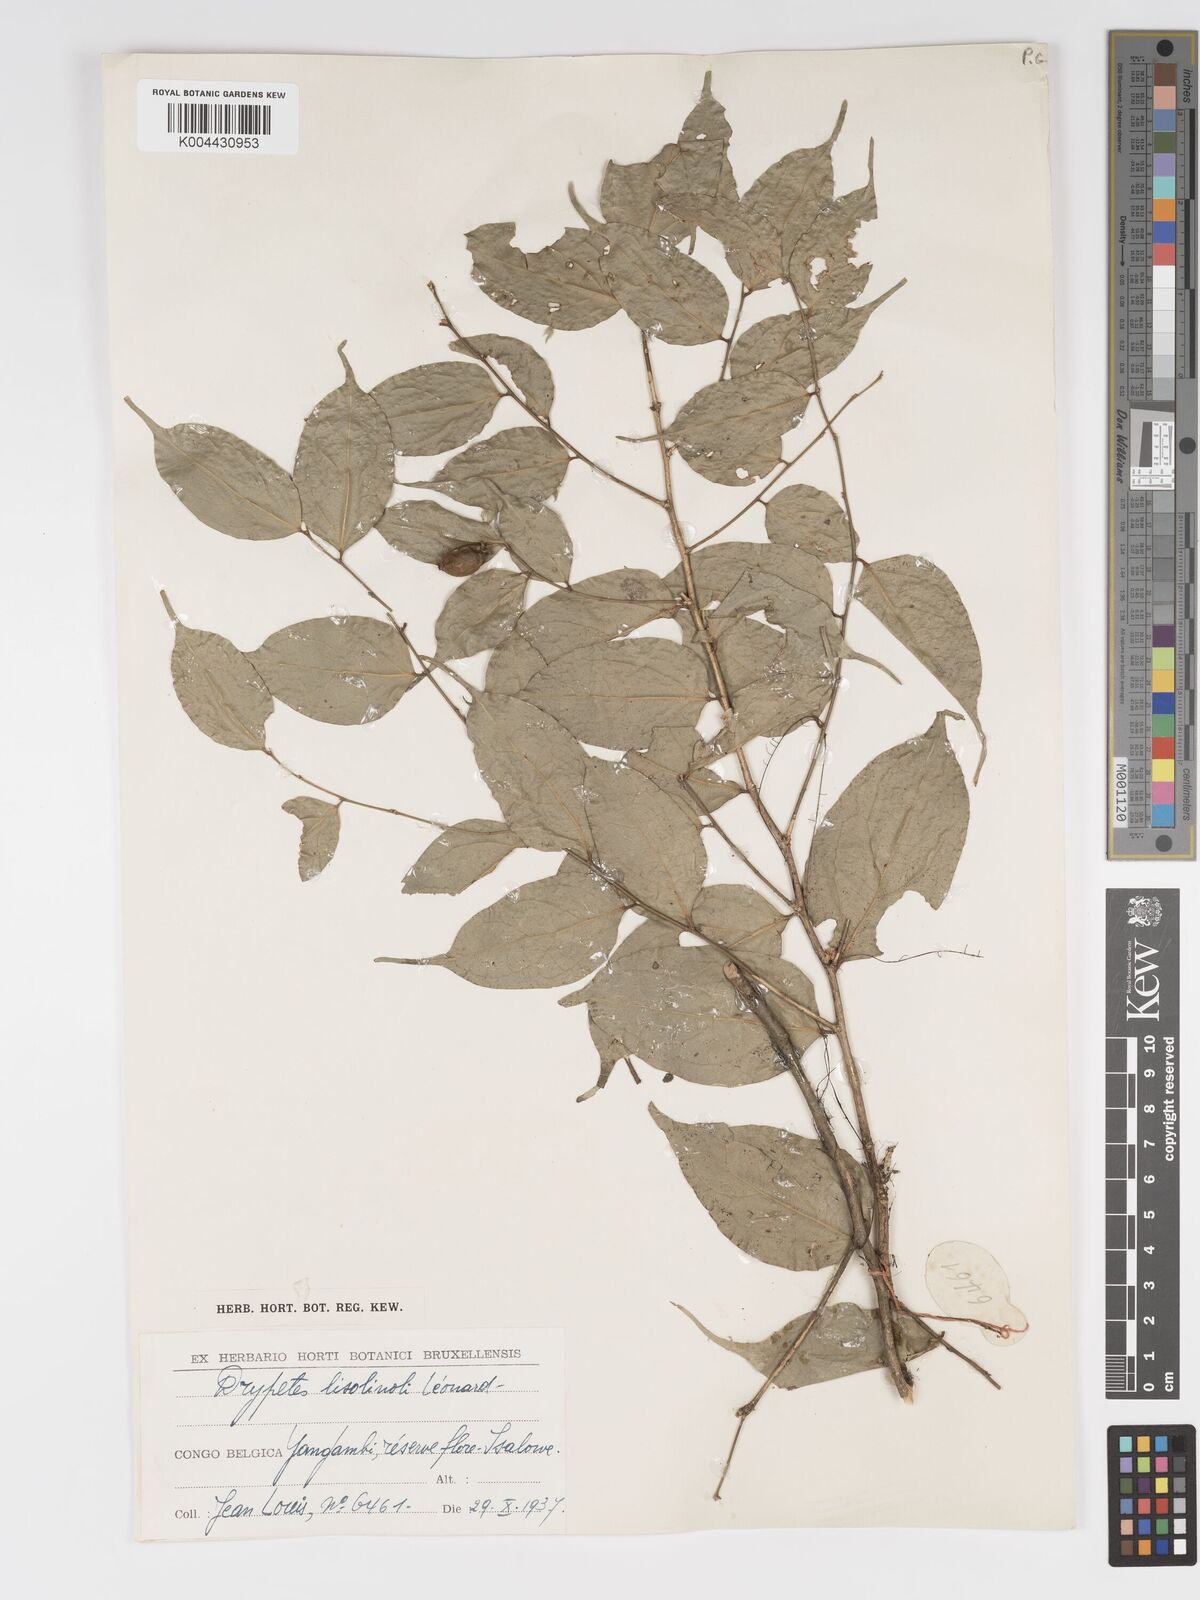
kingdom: Plantae
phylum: Tracheophyta
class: Magnoliopsida
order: Malpighiales
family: Putranjivaceae
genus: Drypetes
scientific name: Drypetes
